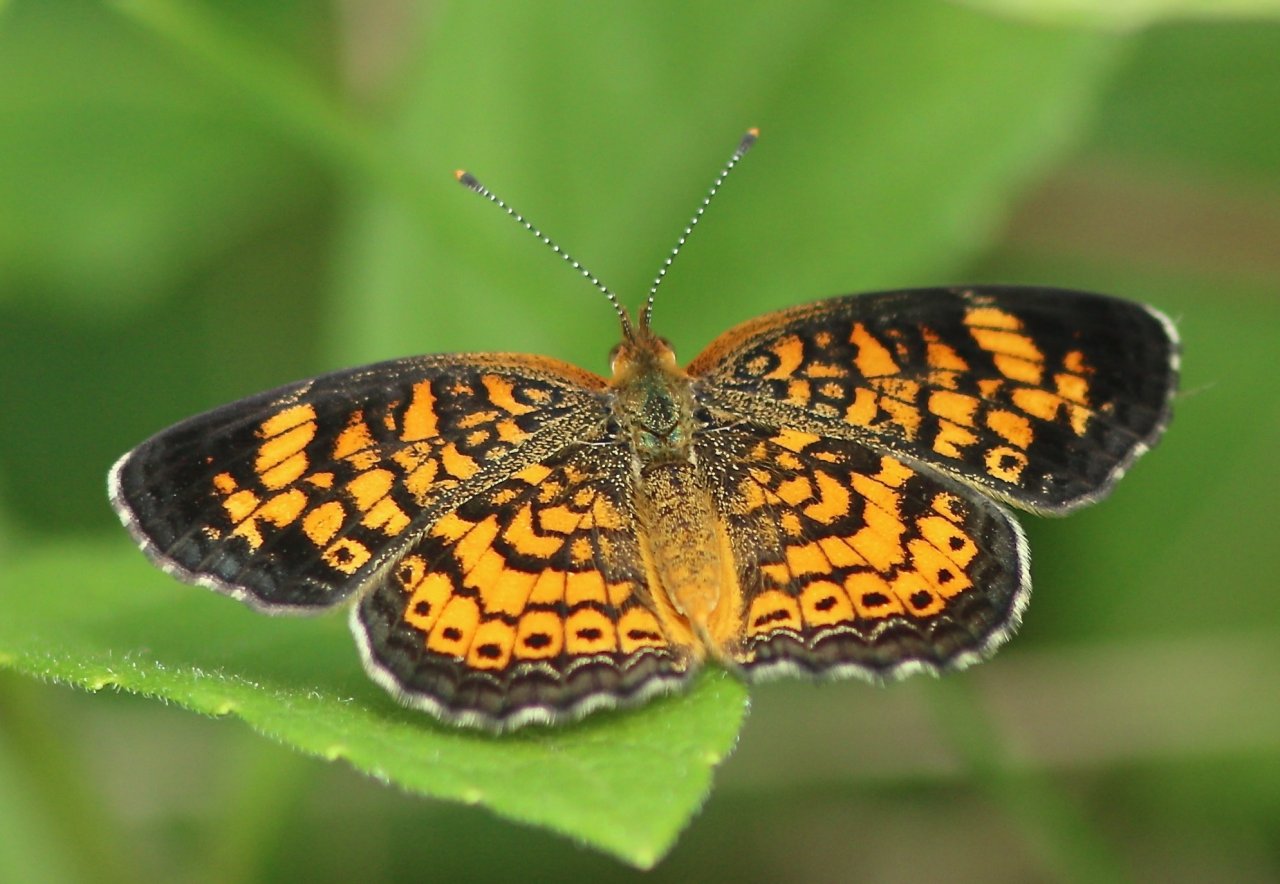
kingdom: Animalia
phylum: Arthropoda
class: Insecta
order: Lepidoptera
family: Nymphalidae
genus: Phyciodes
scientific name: Phyciodes tharos
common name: Pearl Crescent
